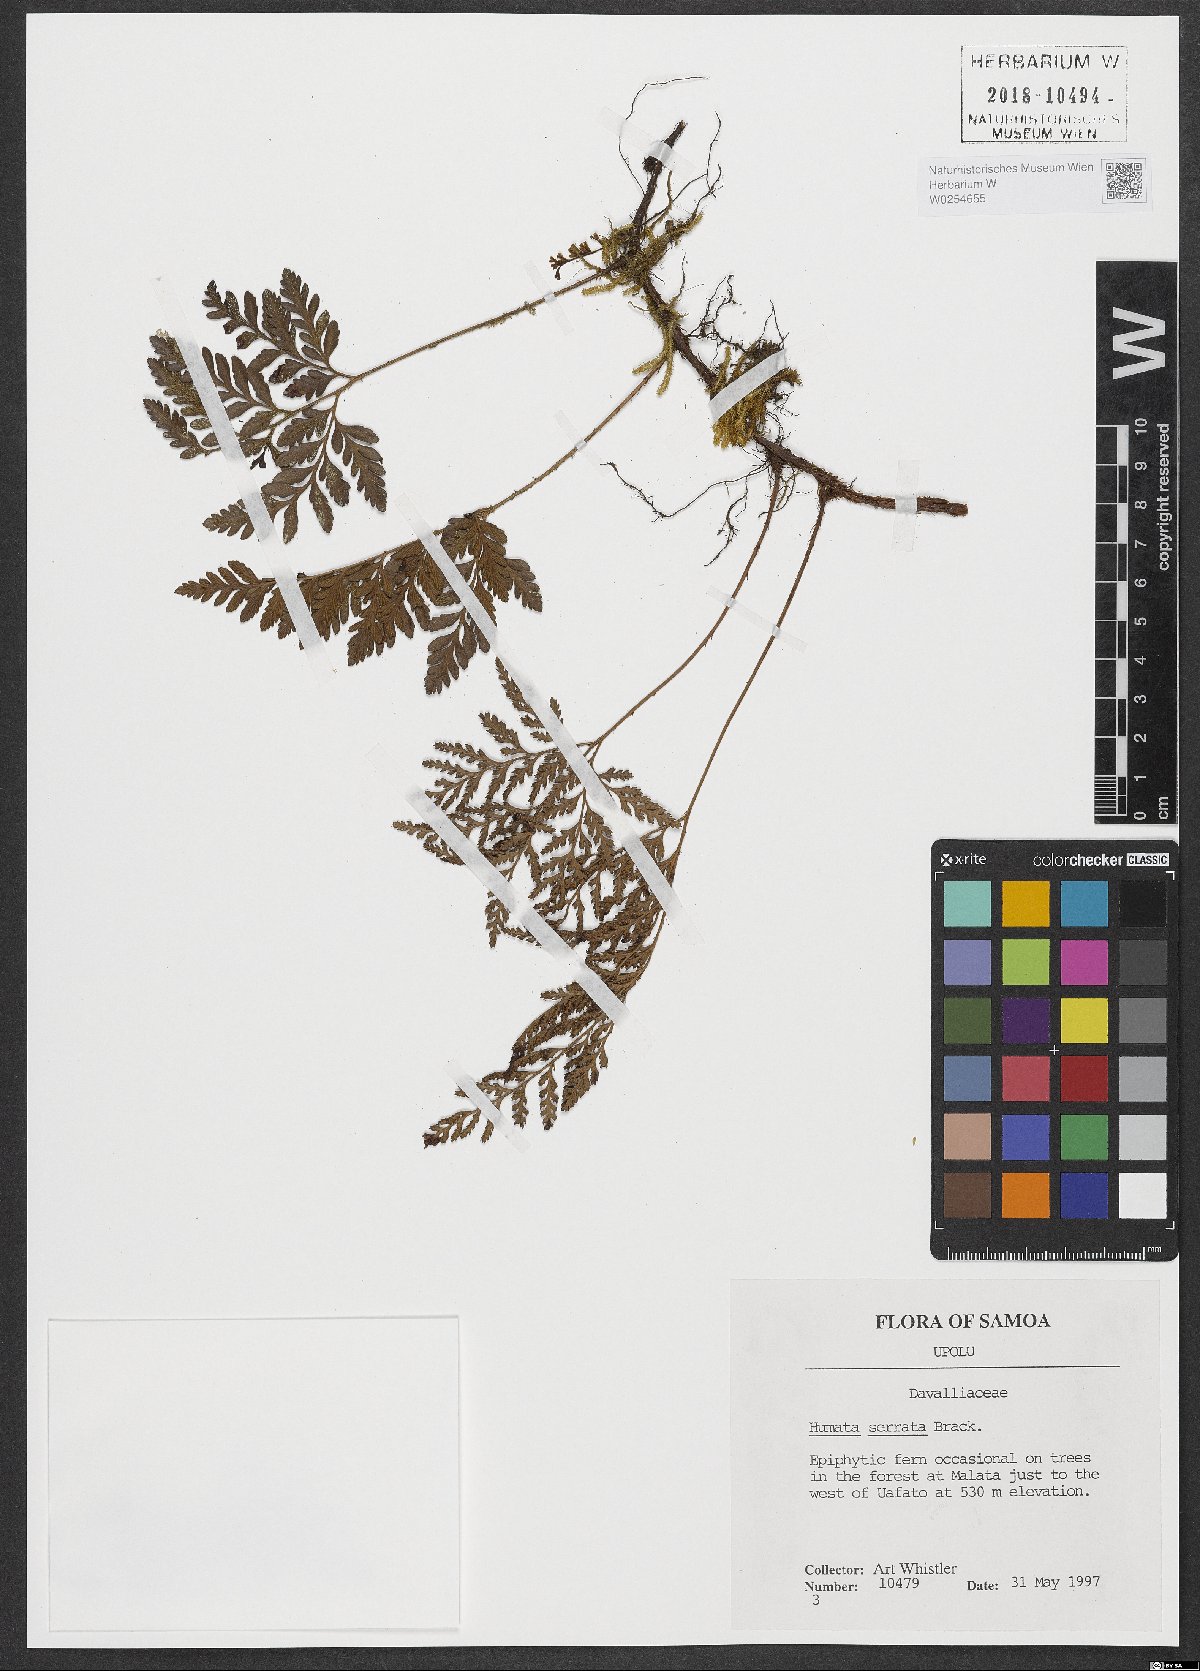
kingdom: Plantae
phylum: Tracheophyta
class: Polypodiopsida
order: Polypodiales
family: Davalliaceae
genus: Davallia
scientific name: Davallia serrata
